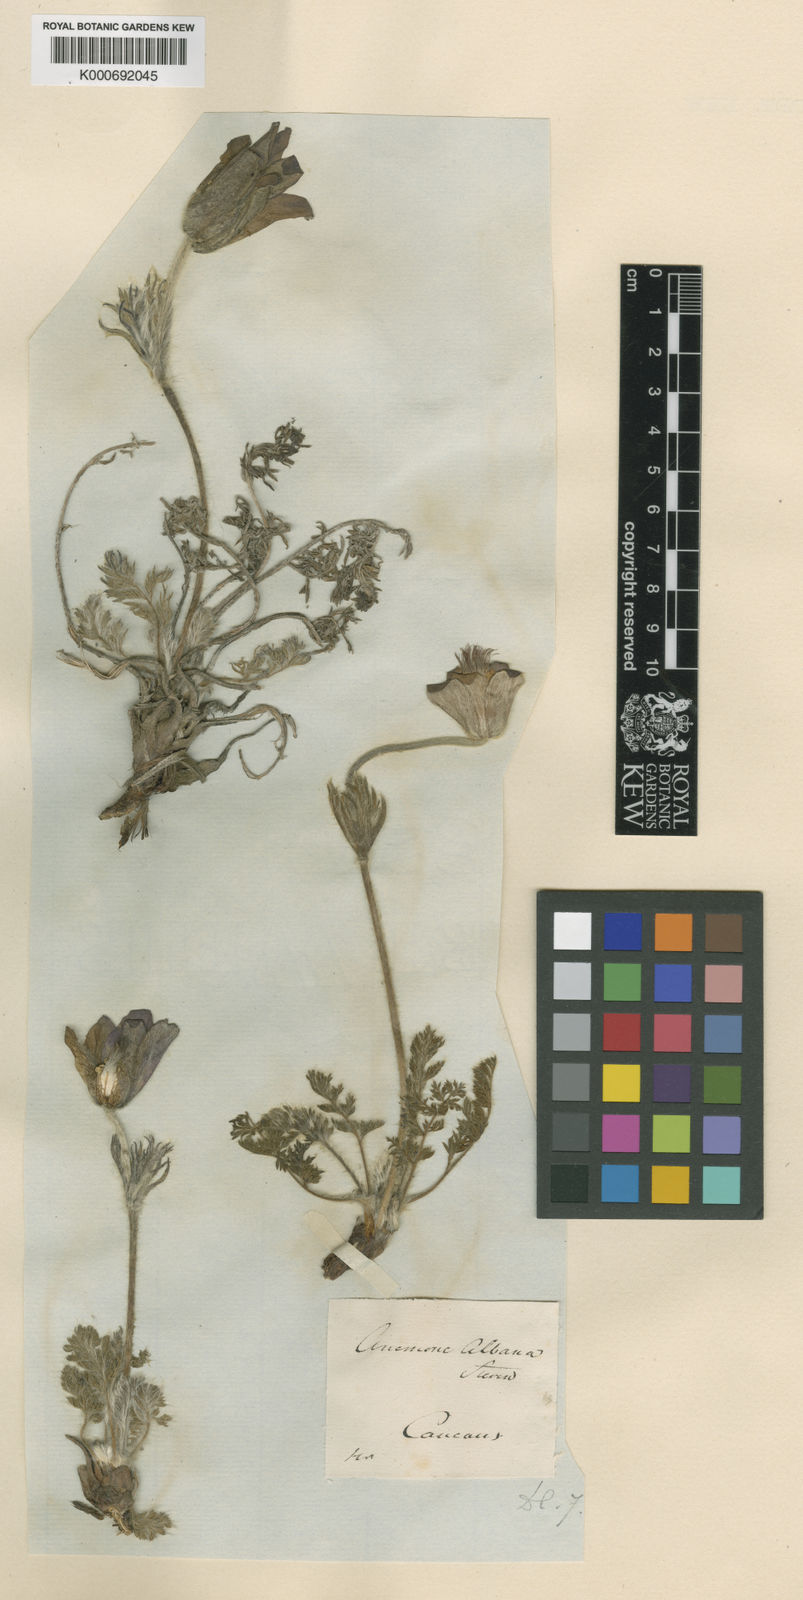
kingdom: Plantae
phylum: Tracheophyta
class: Magnoliopsida
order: Ranunculales
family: Ranunculaceae
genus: Pulsatilla
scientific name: Pulsatilla albana
